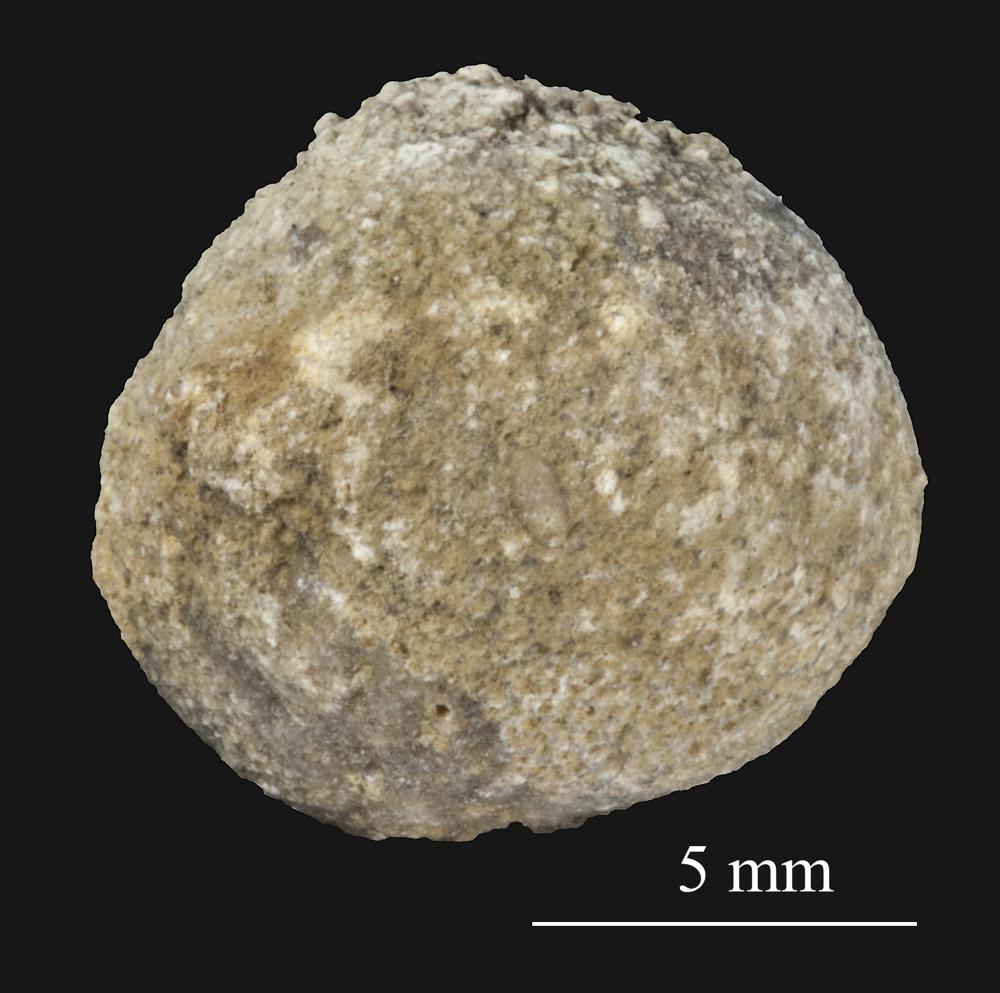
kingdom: Animalia
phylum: Bryozoa
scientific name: Bryozoa
